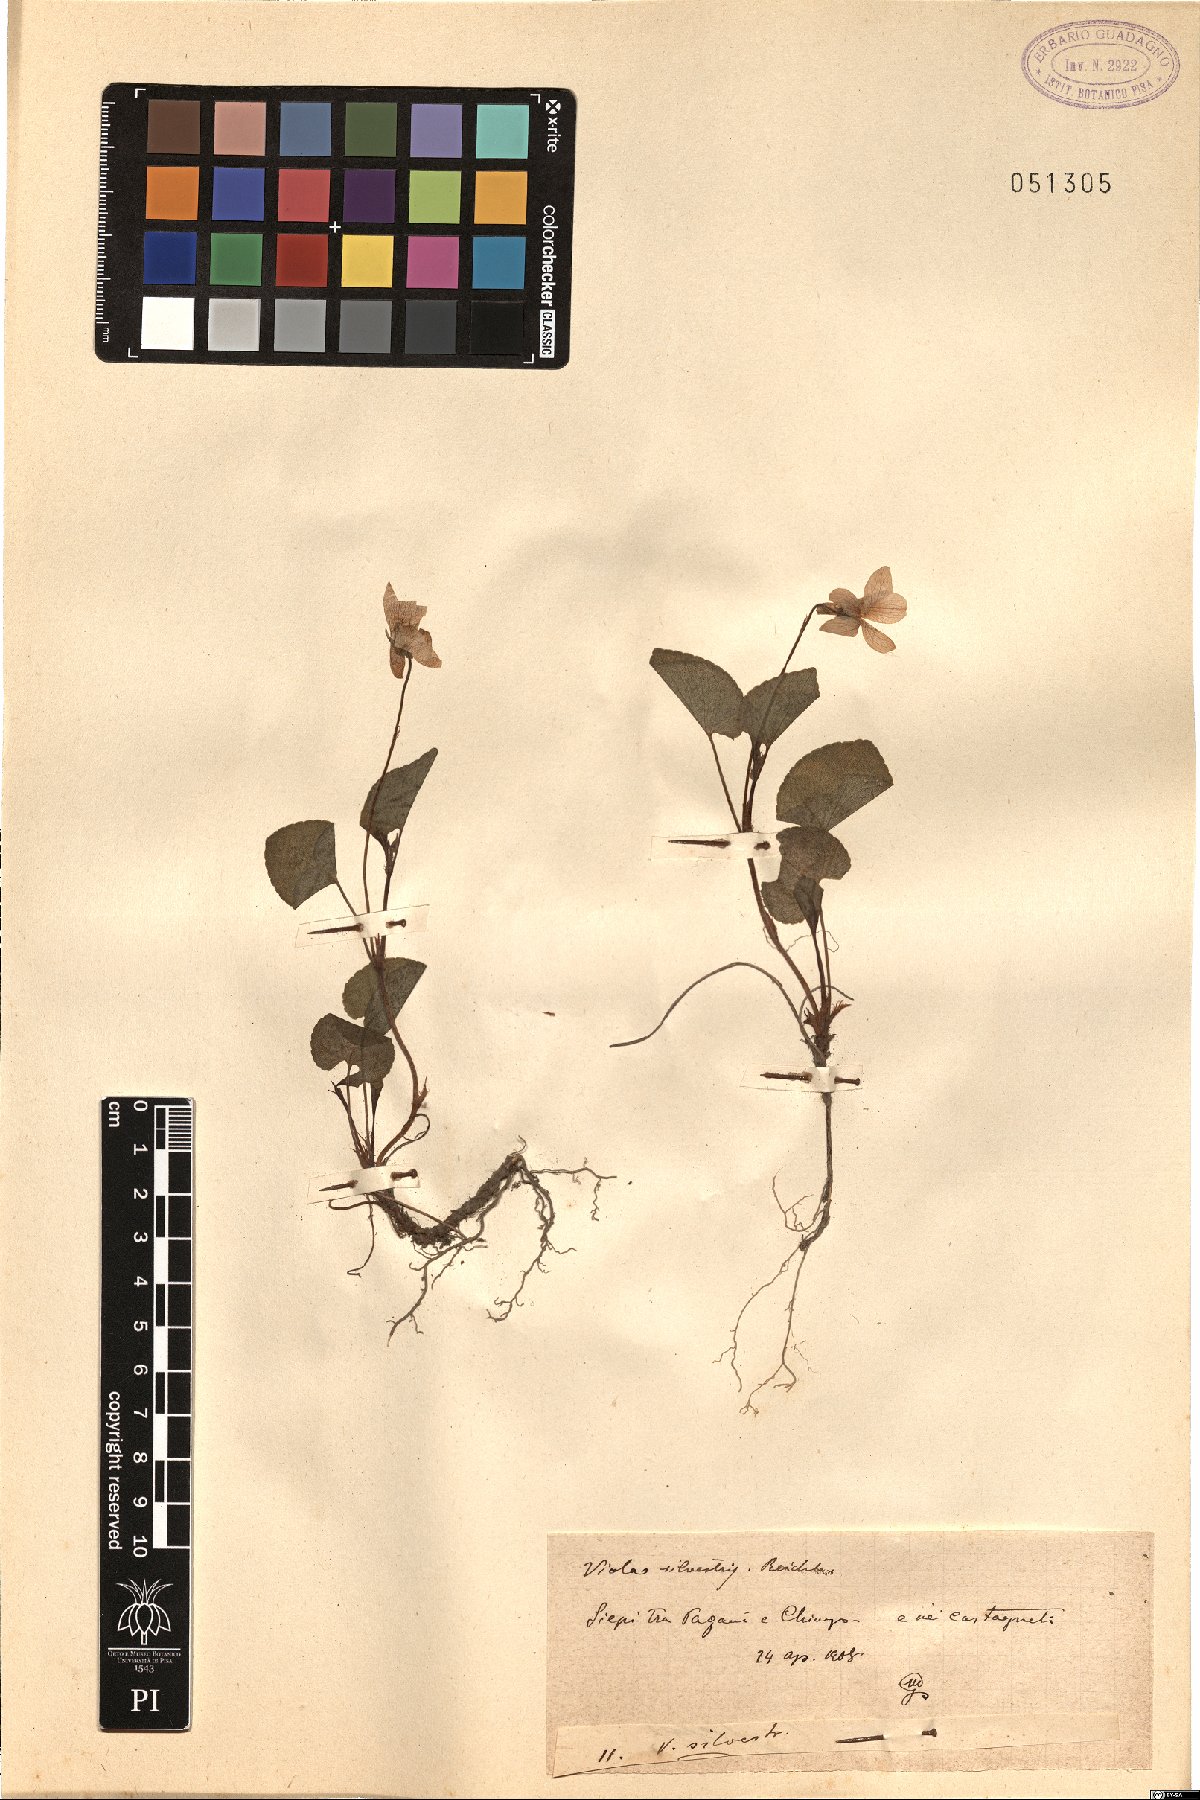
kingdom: Plantae
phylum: Tracheophyta
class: Magnoliopsida
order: Malpighiales
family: Violaceae
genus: Viola
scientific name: Viola canina
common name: Heath dog-violet
